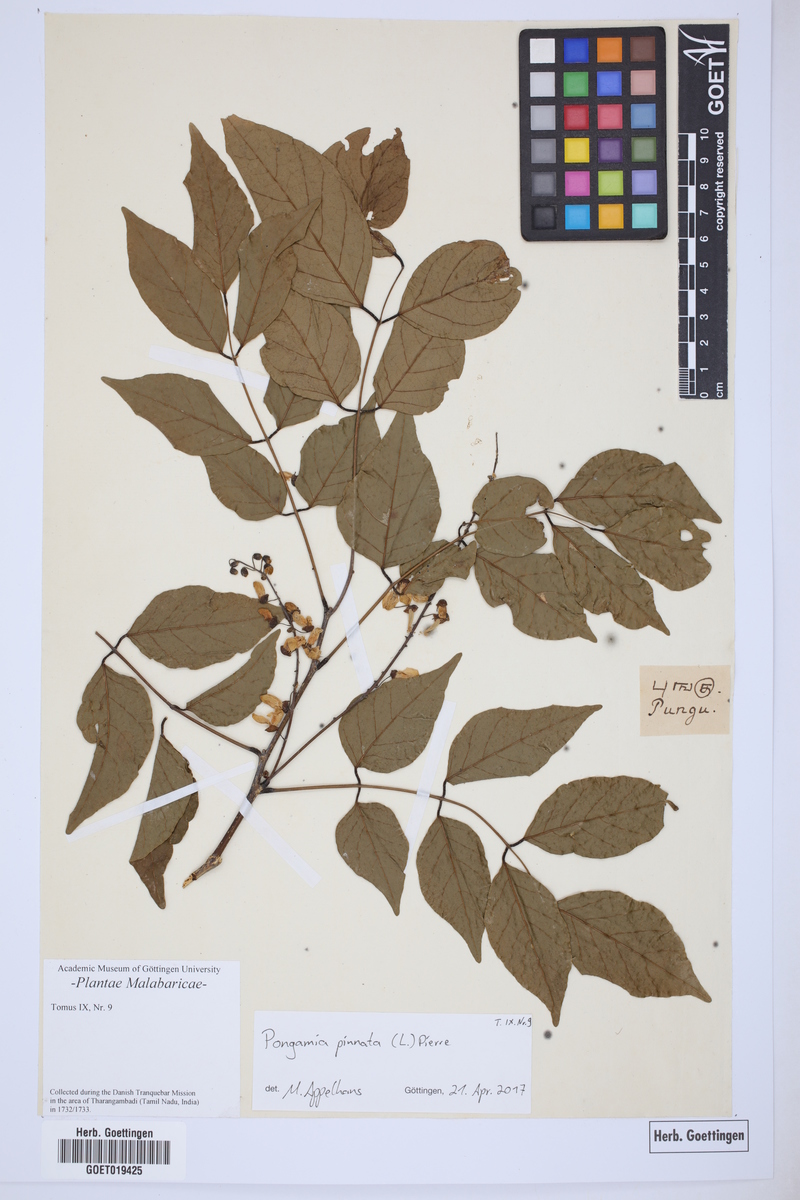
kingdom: Plantae
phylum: Tracheophyta
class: Magnoliopsida
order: Fabales
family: Fabaceae
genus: Pongamia
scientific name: Pongamia pinnata
